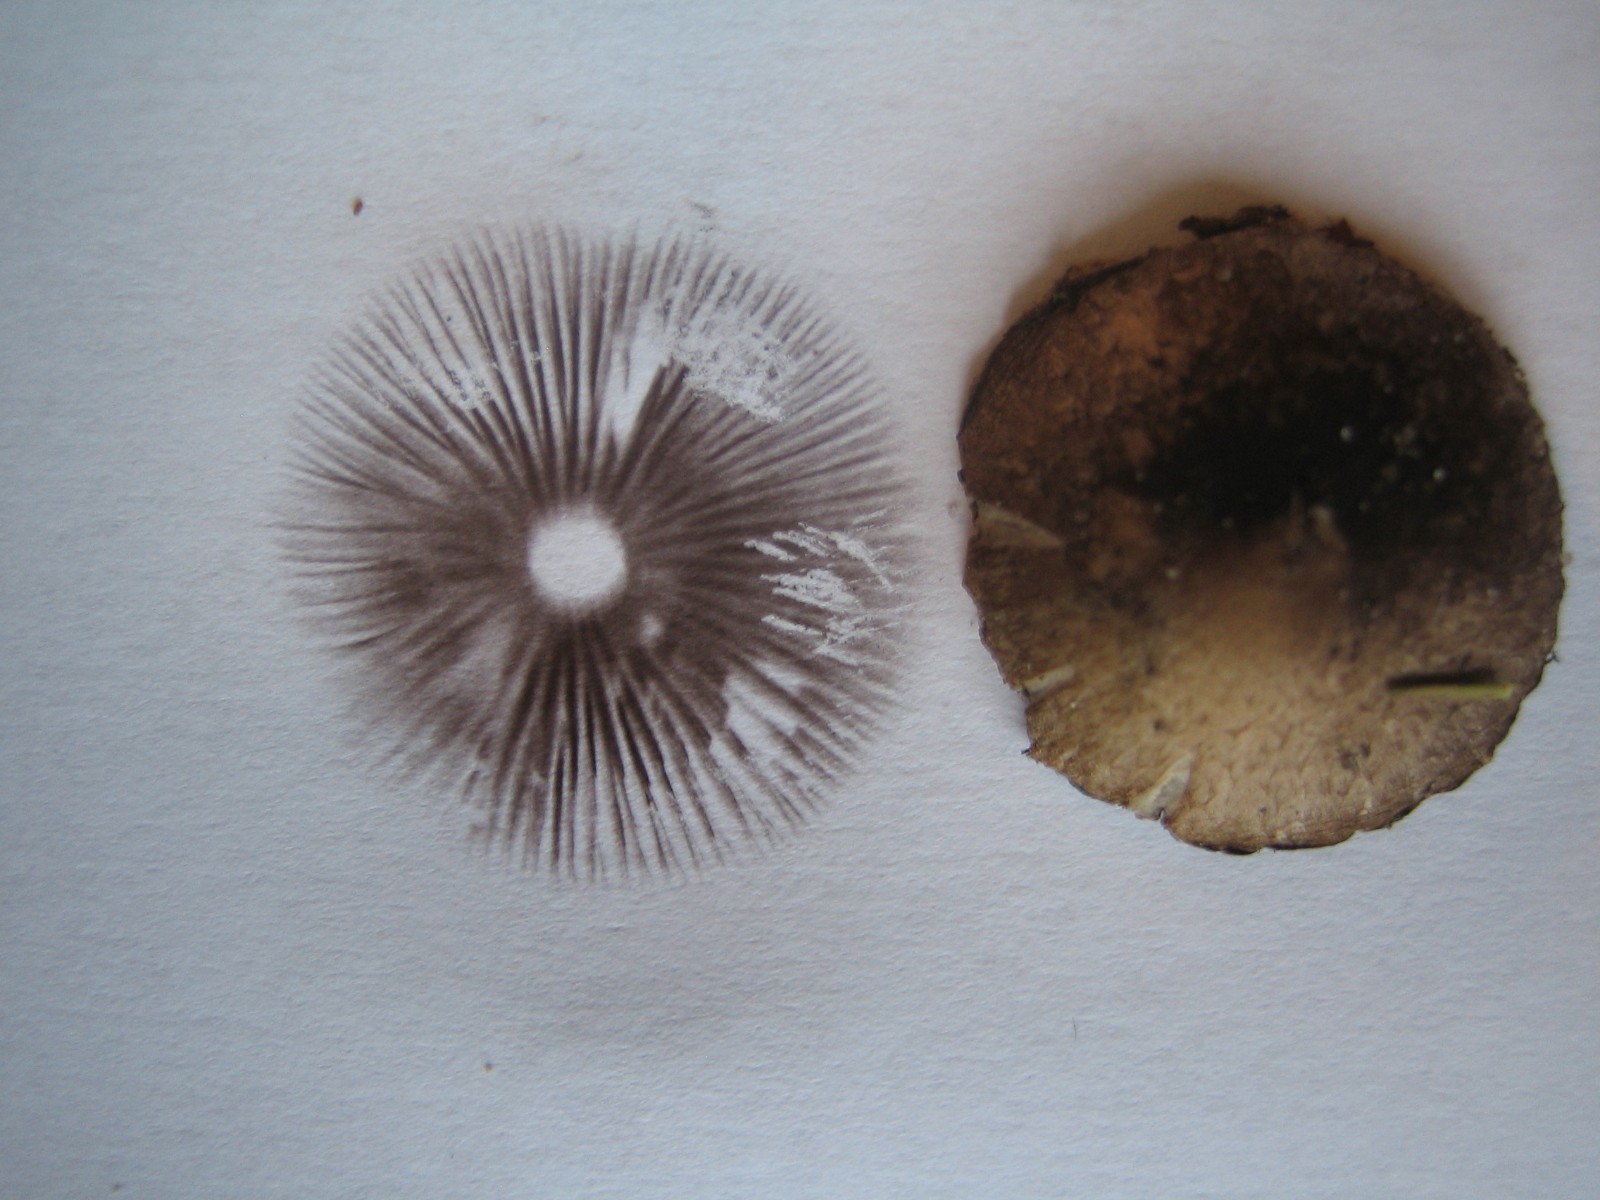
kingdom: Fungi
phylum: Basidiomycota
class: Agaricomycetes
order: Agaricales
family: Psathyrellaceae
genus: Psathyrella
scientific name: Psathyrella
